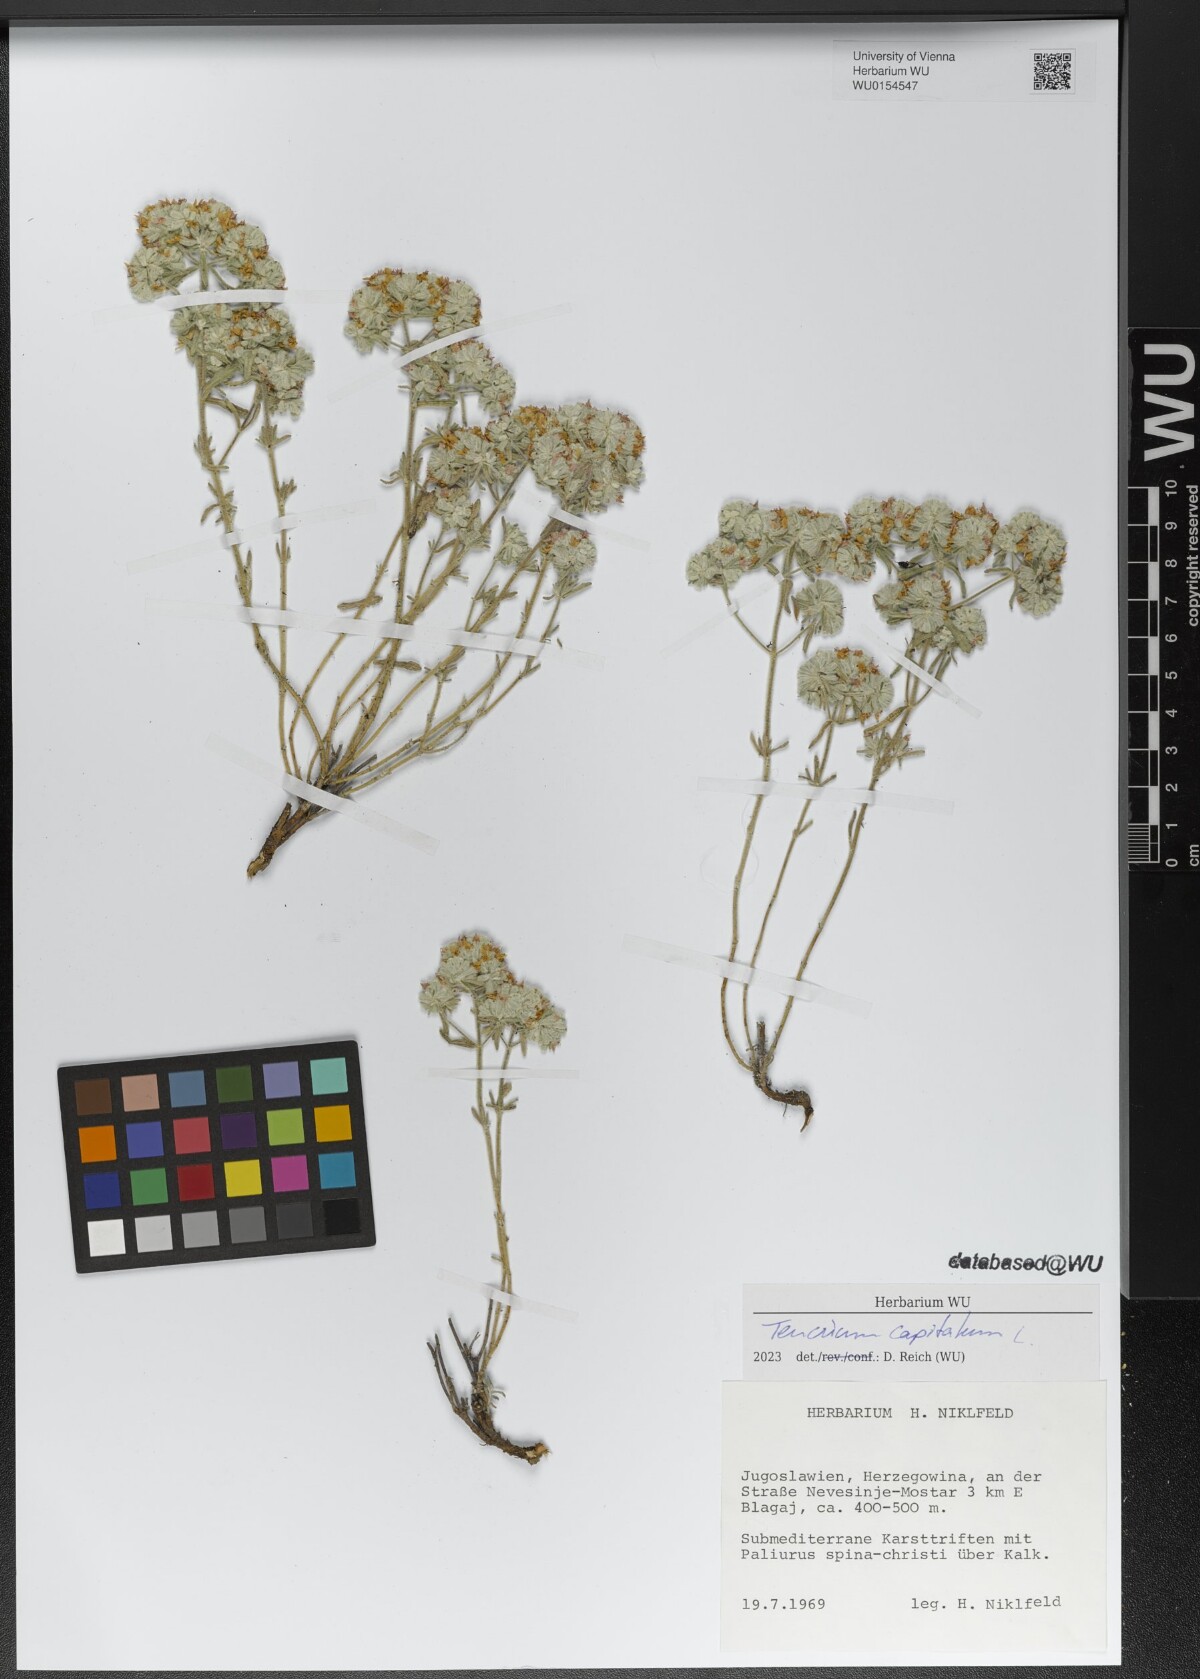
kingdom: Plantae
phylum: Tracheophyta
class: Magnoliopsida
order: Lamiales
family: Lamiaceae
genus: Teucrium
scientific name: Teucrium capitatum
